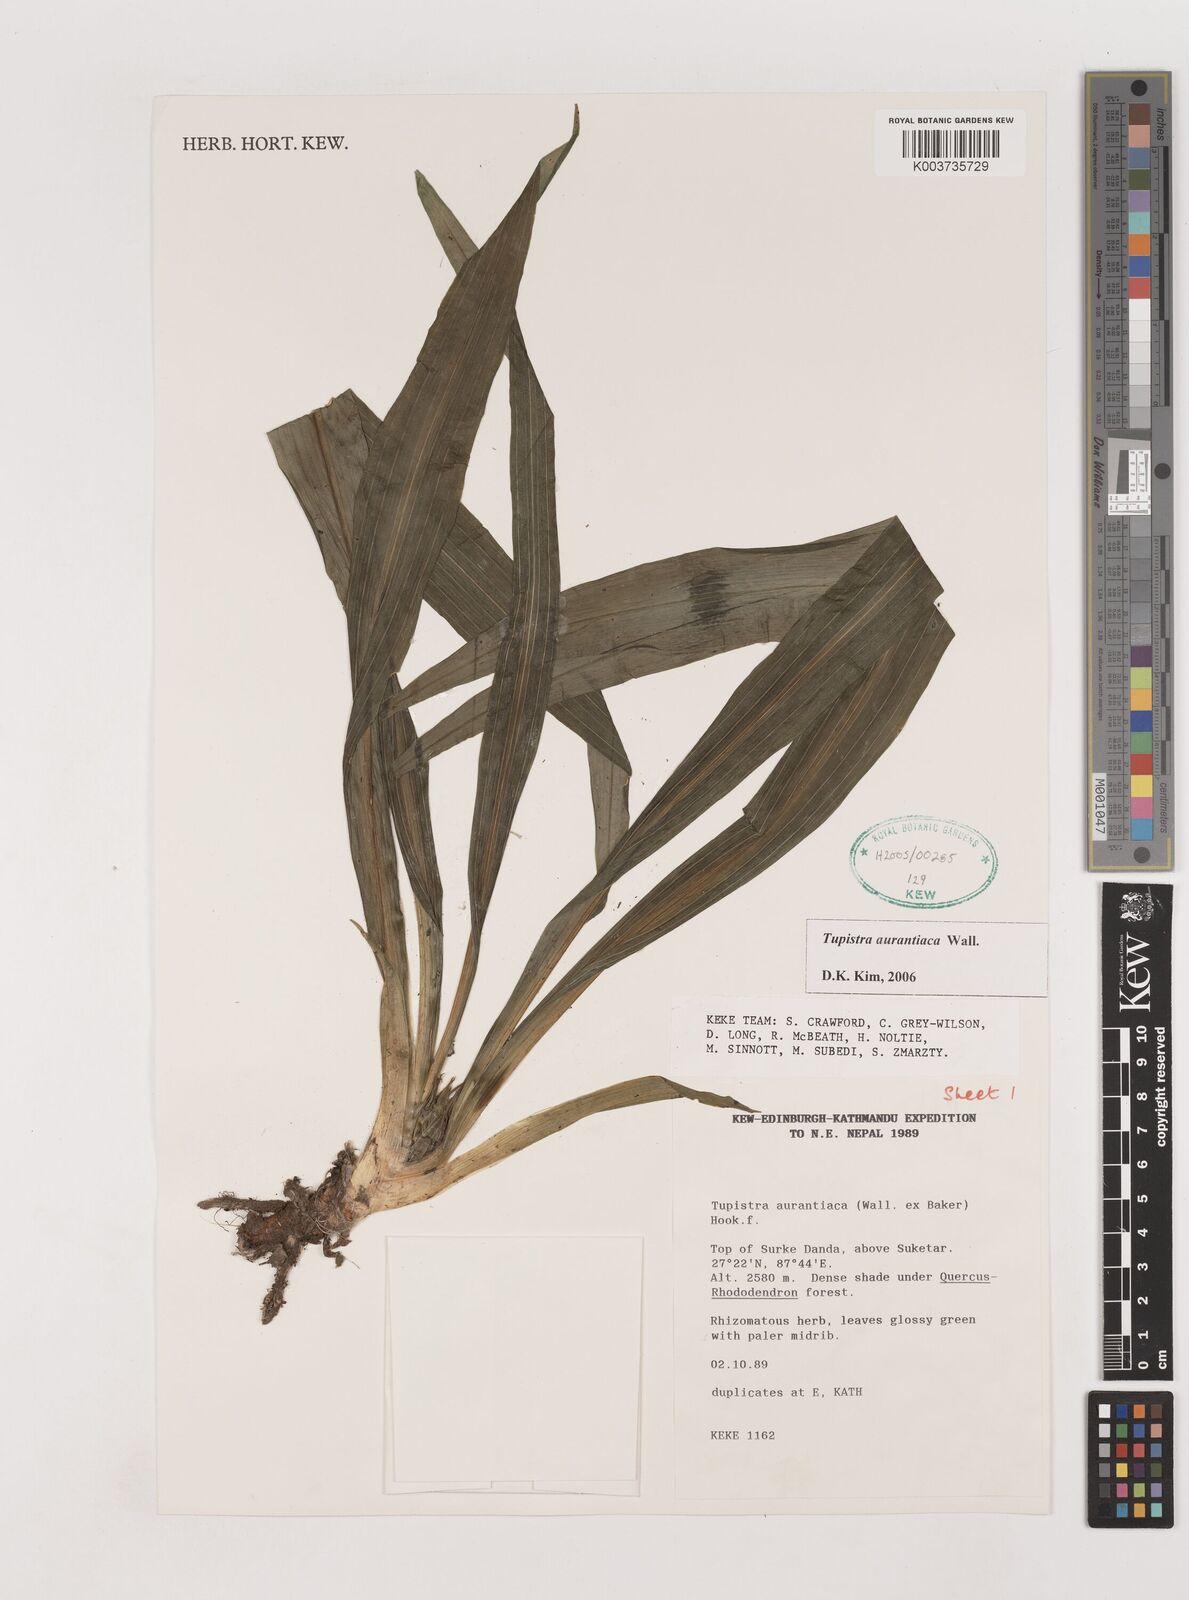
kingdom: Plantae
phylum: Tracheophyta
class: Liliopsida
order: Asparagales
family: Asparagaceae
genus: Rohdea
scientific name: Rohdea nepalensis
